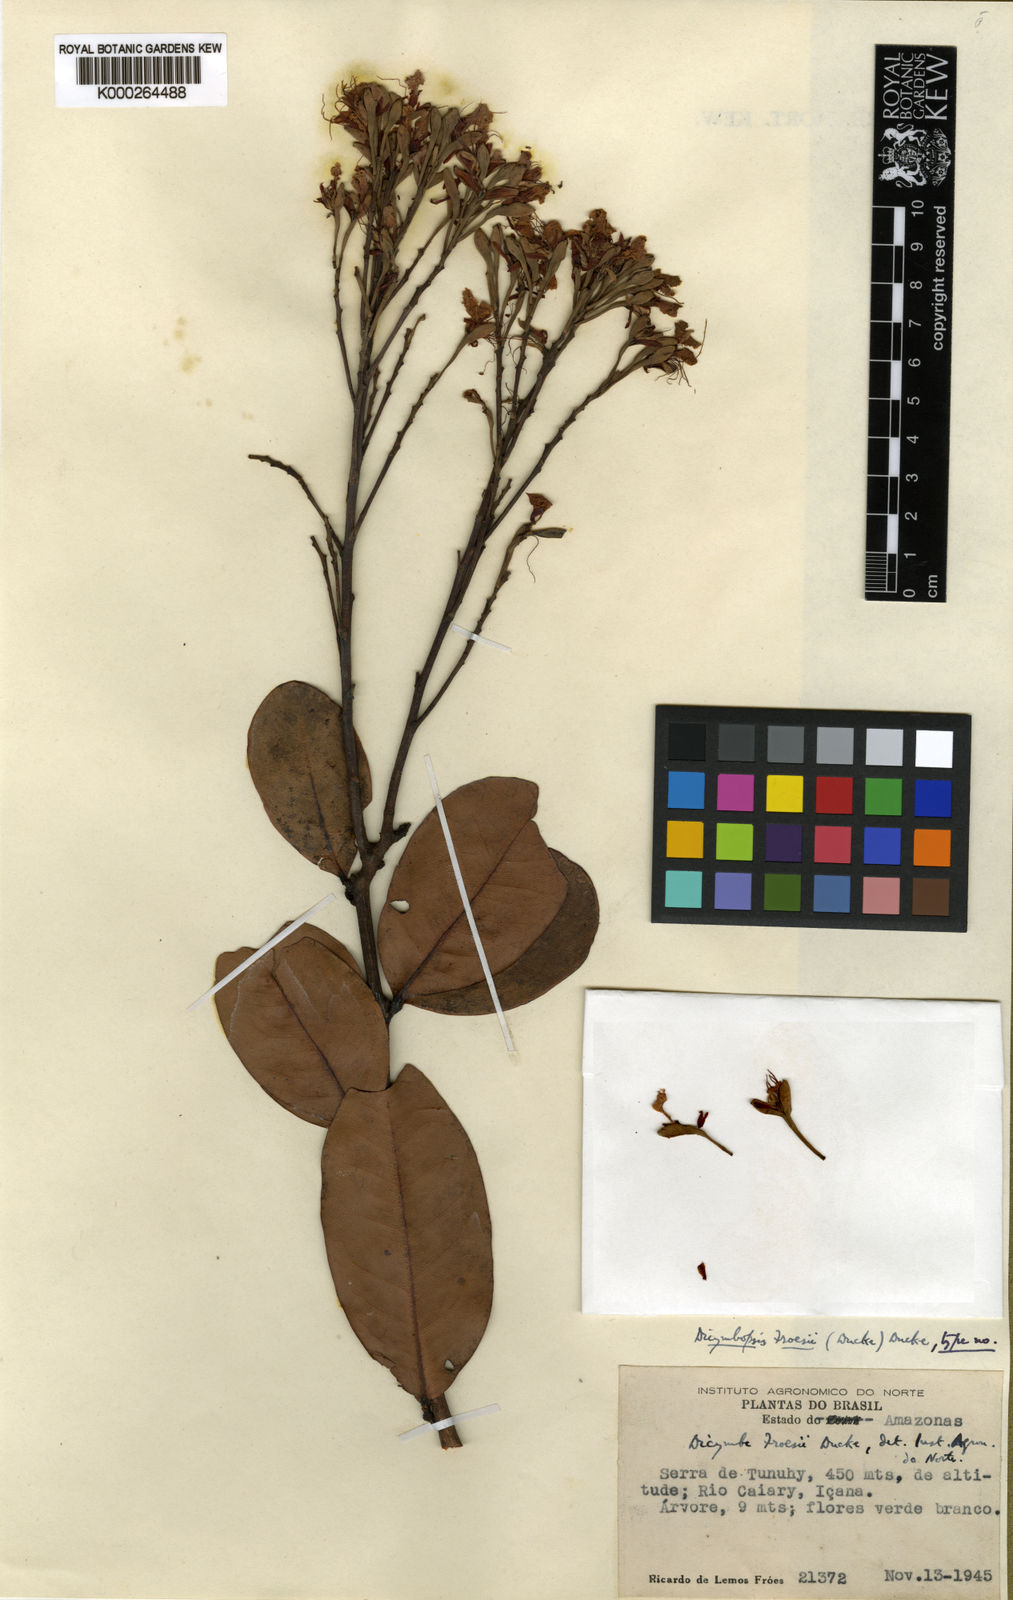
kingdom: Plantae
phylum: Tracheophyta
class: Magnoliopsida
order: Fabales
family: Fabaceae
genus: Dicymbe
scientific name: Dicymbe froesii
